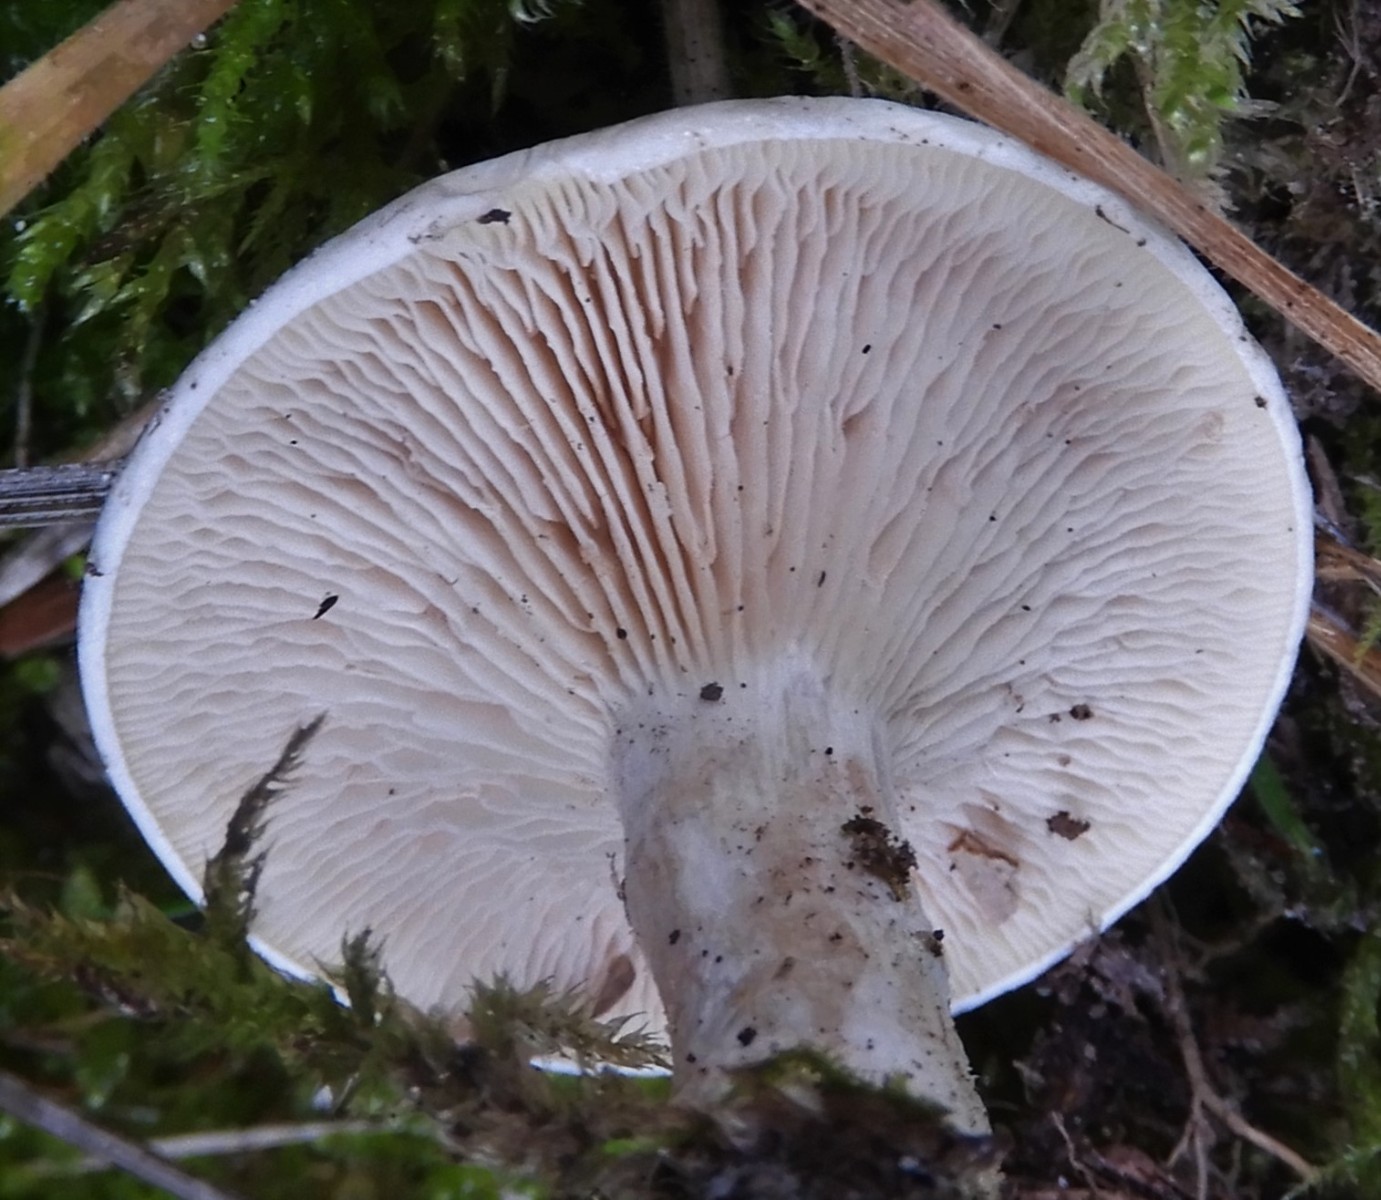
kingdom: Fungi
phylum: Basidiomycota
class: Agaricomycetes
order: Agaricales
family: Entolomataceae
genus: Clitopilus
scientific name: Clitopilus prunulus
